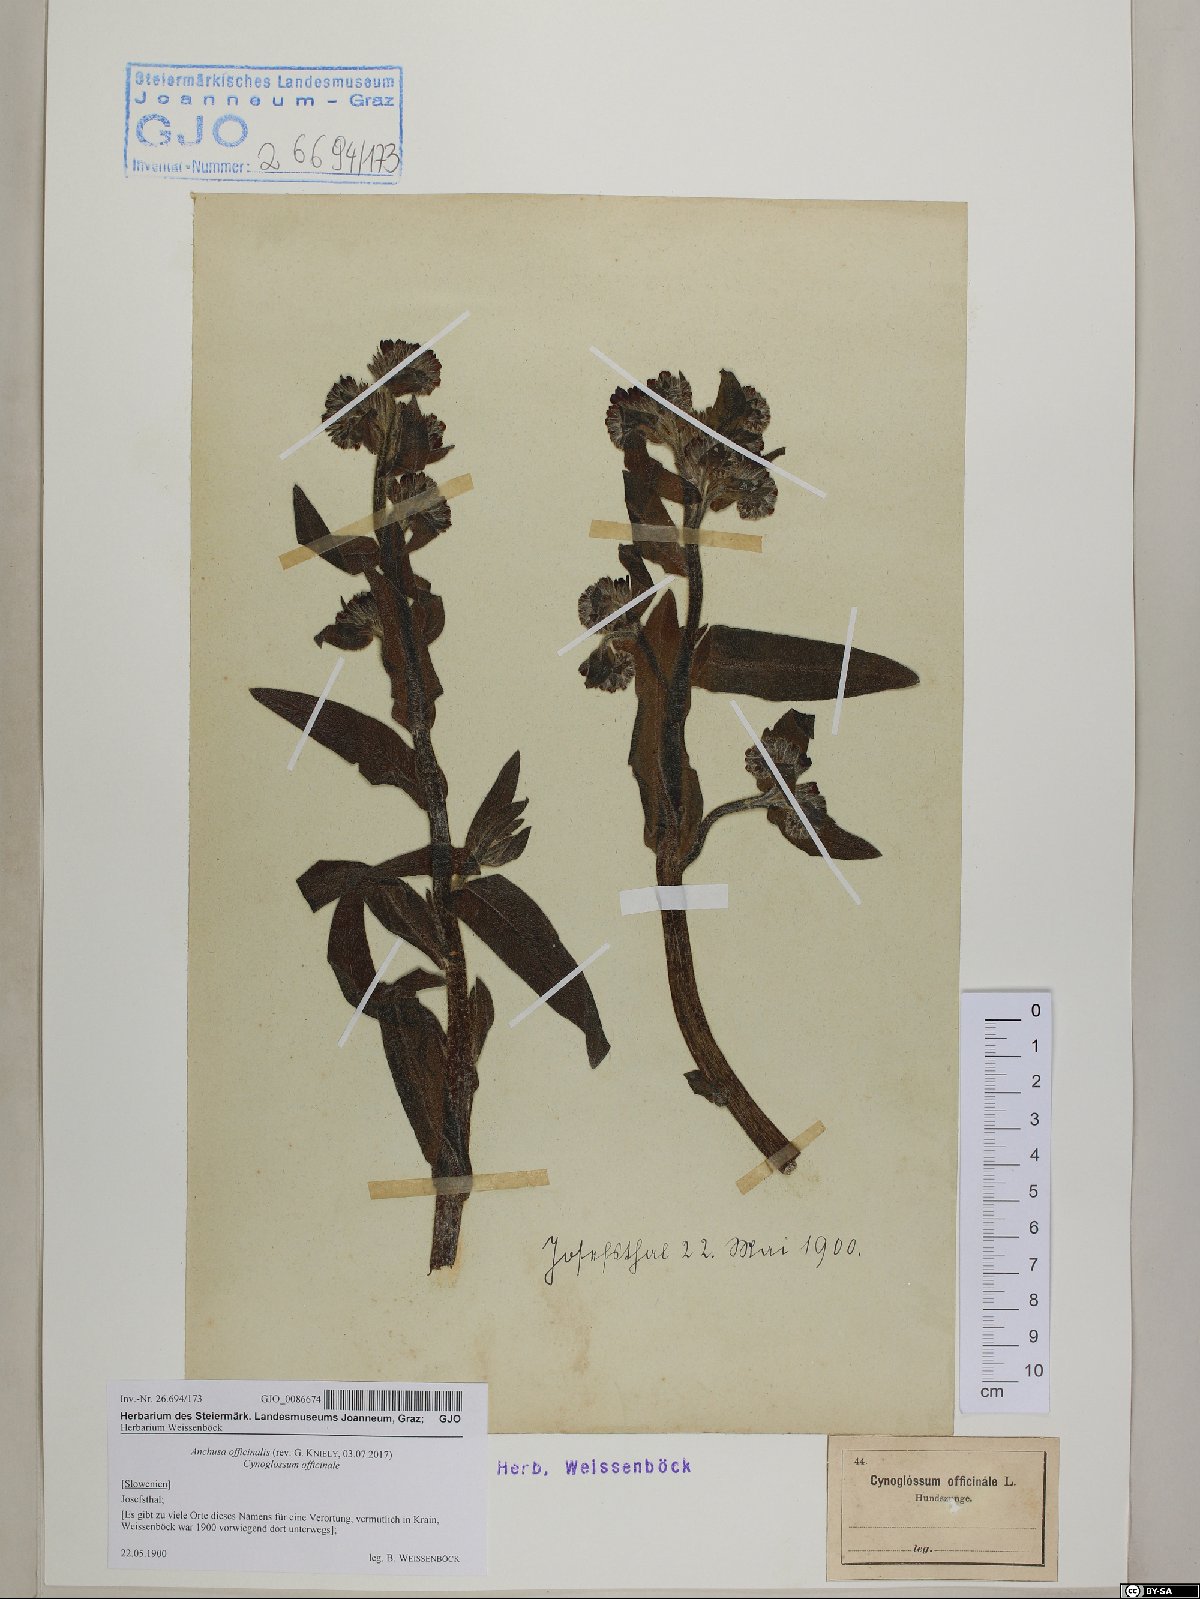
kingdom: Plantae
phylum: Tracheophyta
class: Magnoliopsida
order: Boraginales
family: Boraginaceae
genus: Anchusa
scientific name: Anchusa officinalis
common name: Alkanet
